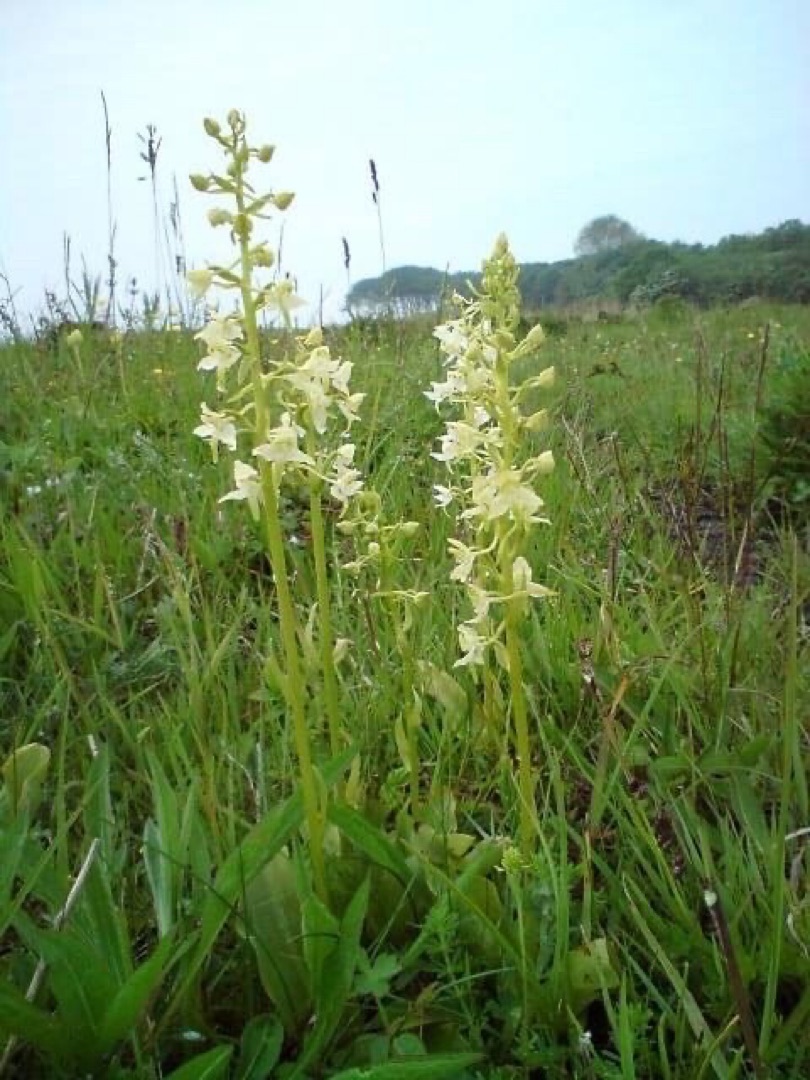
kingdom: Plantae
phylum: Tracheophyta
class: Liliopsida
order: Asparagales
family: Orchidaceae
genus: Platanthera
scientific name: Platanthera chlorantha
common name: Skov-gøgelilje
